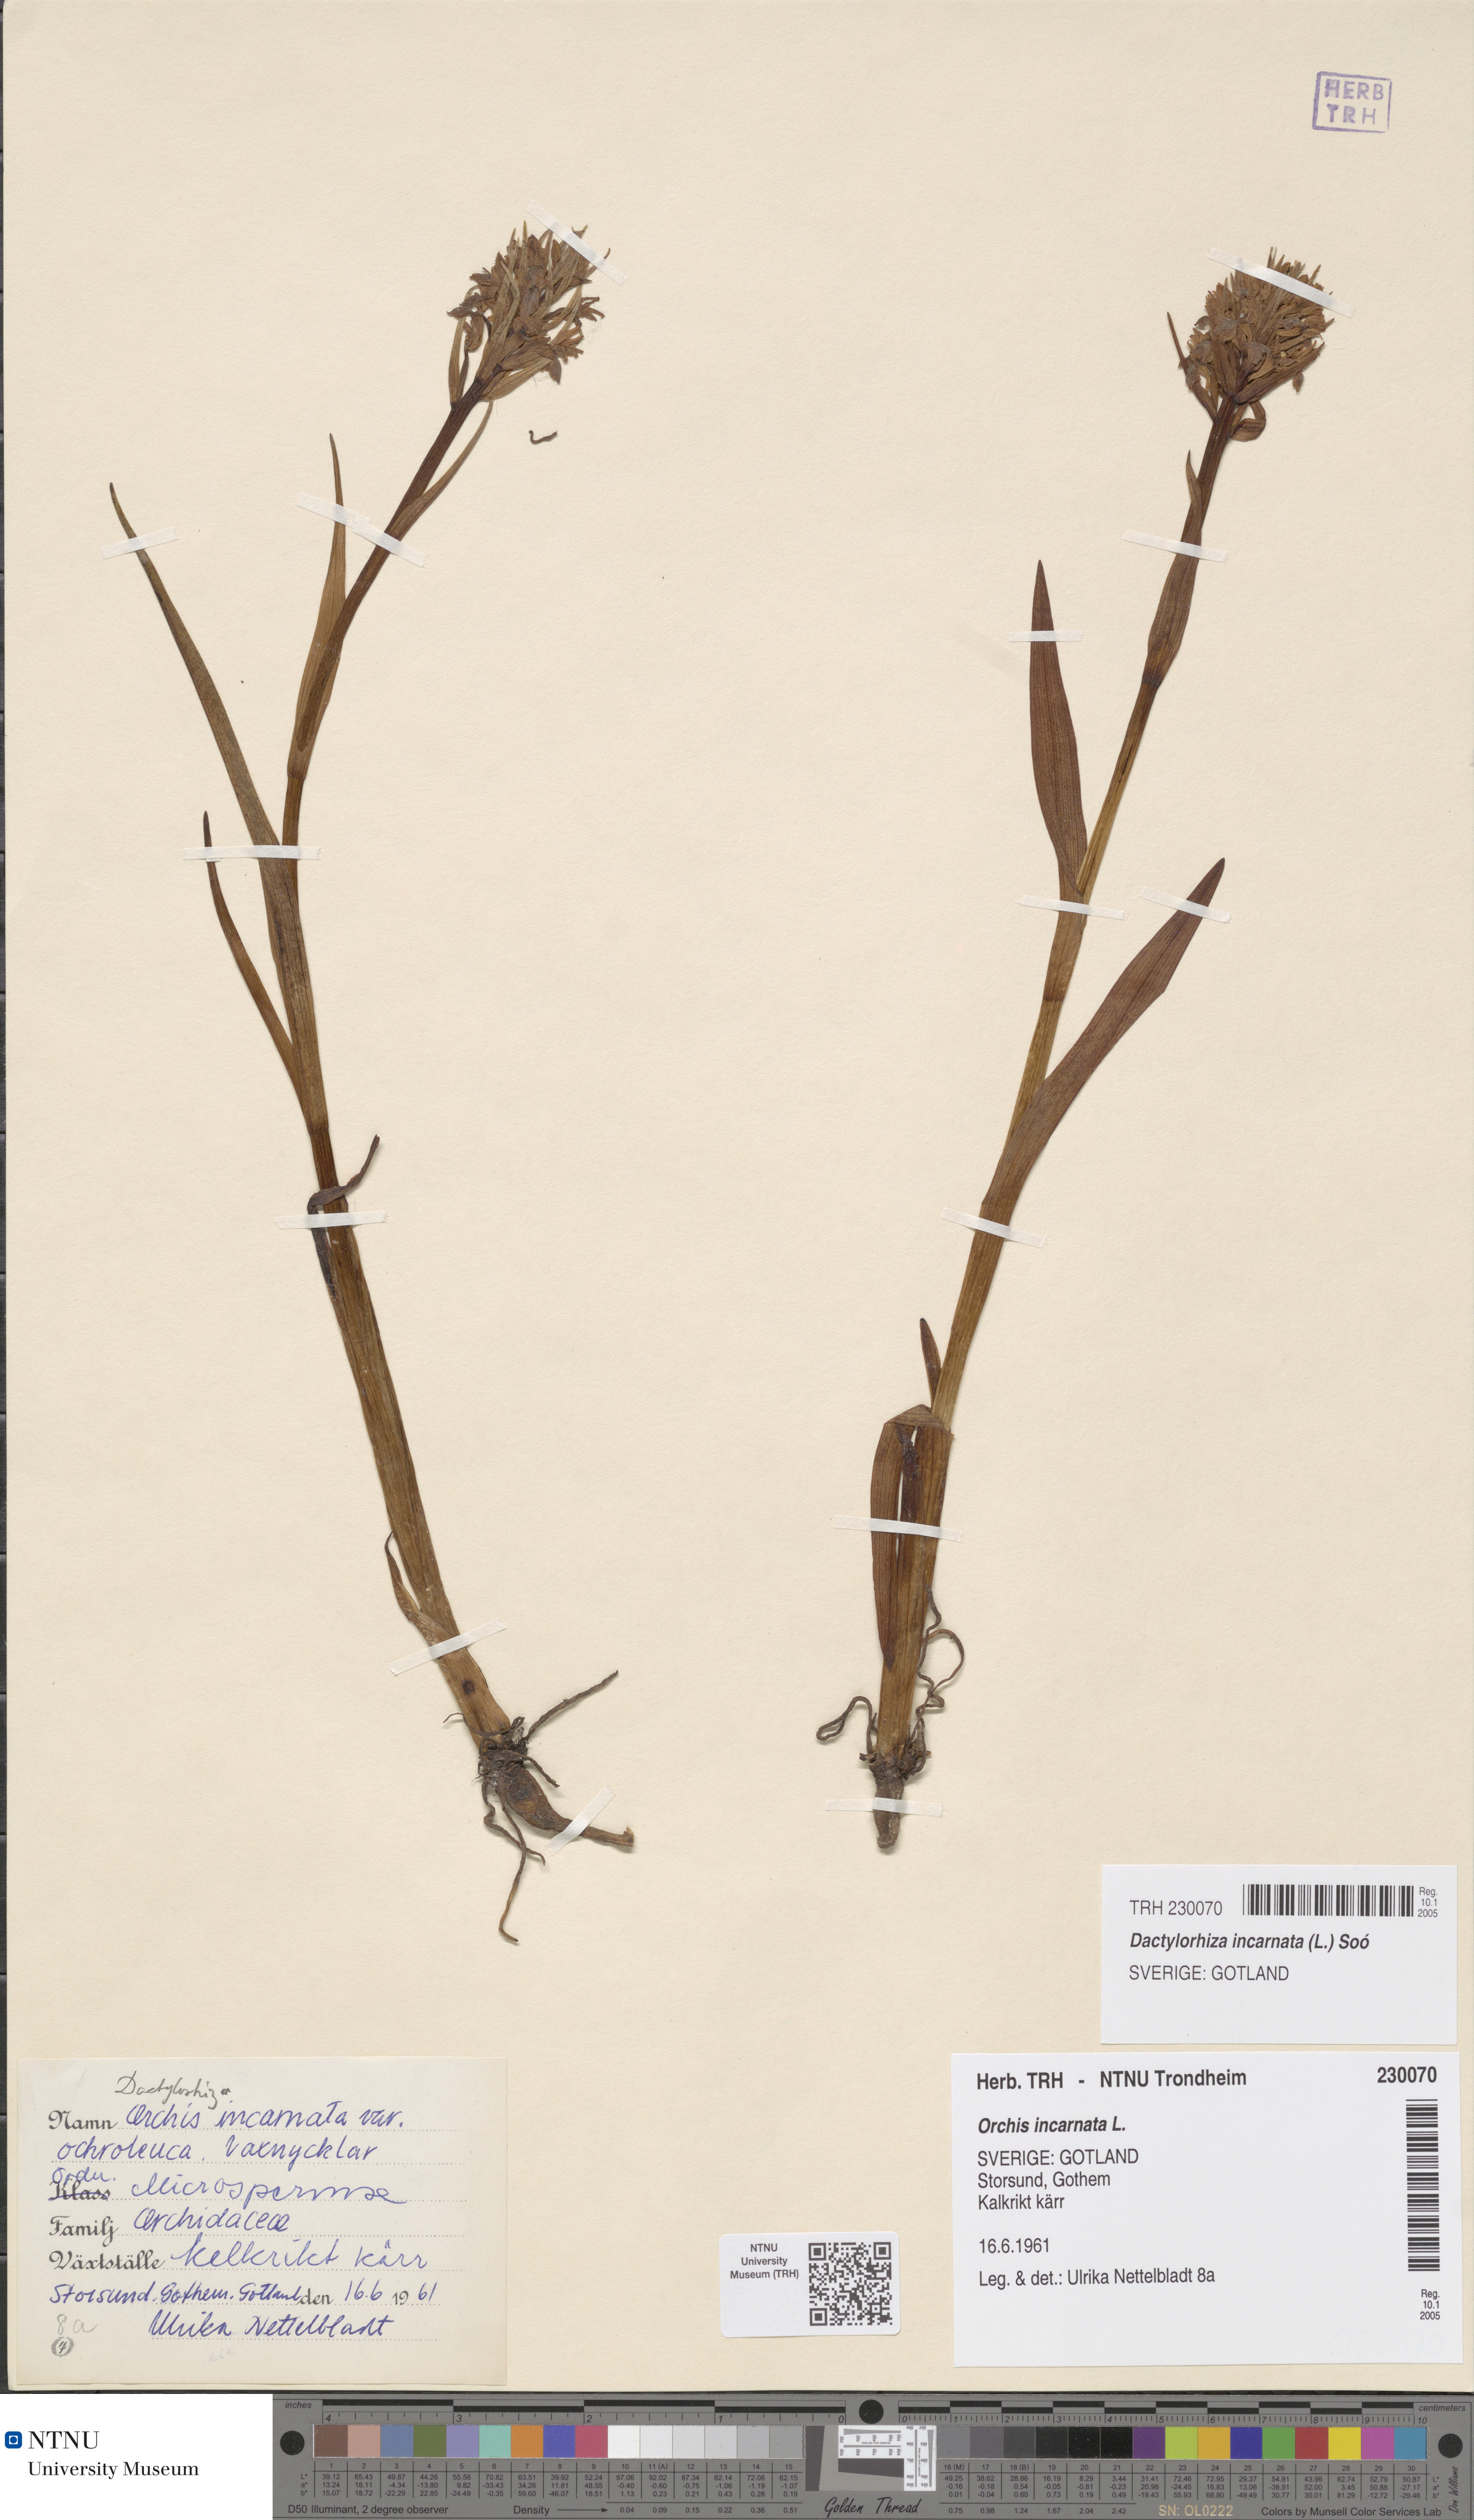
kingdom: Plantae
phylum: Tracheophyta
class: Liliopsida
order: Asparagales
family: Orchidaceae
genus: Dactylorhiza
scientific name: Dactylorhiza incarnata
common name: Early marsh-orchid
